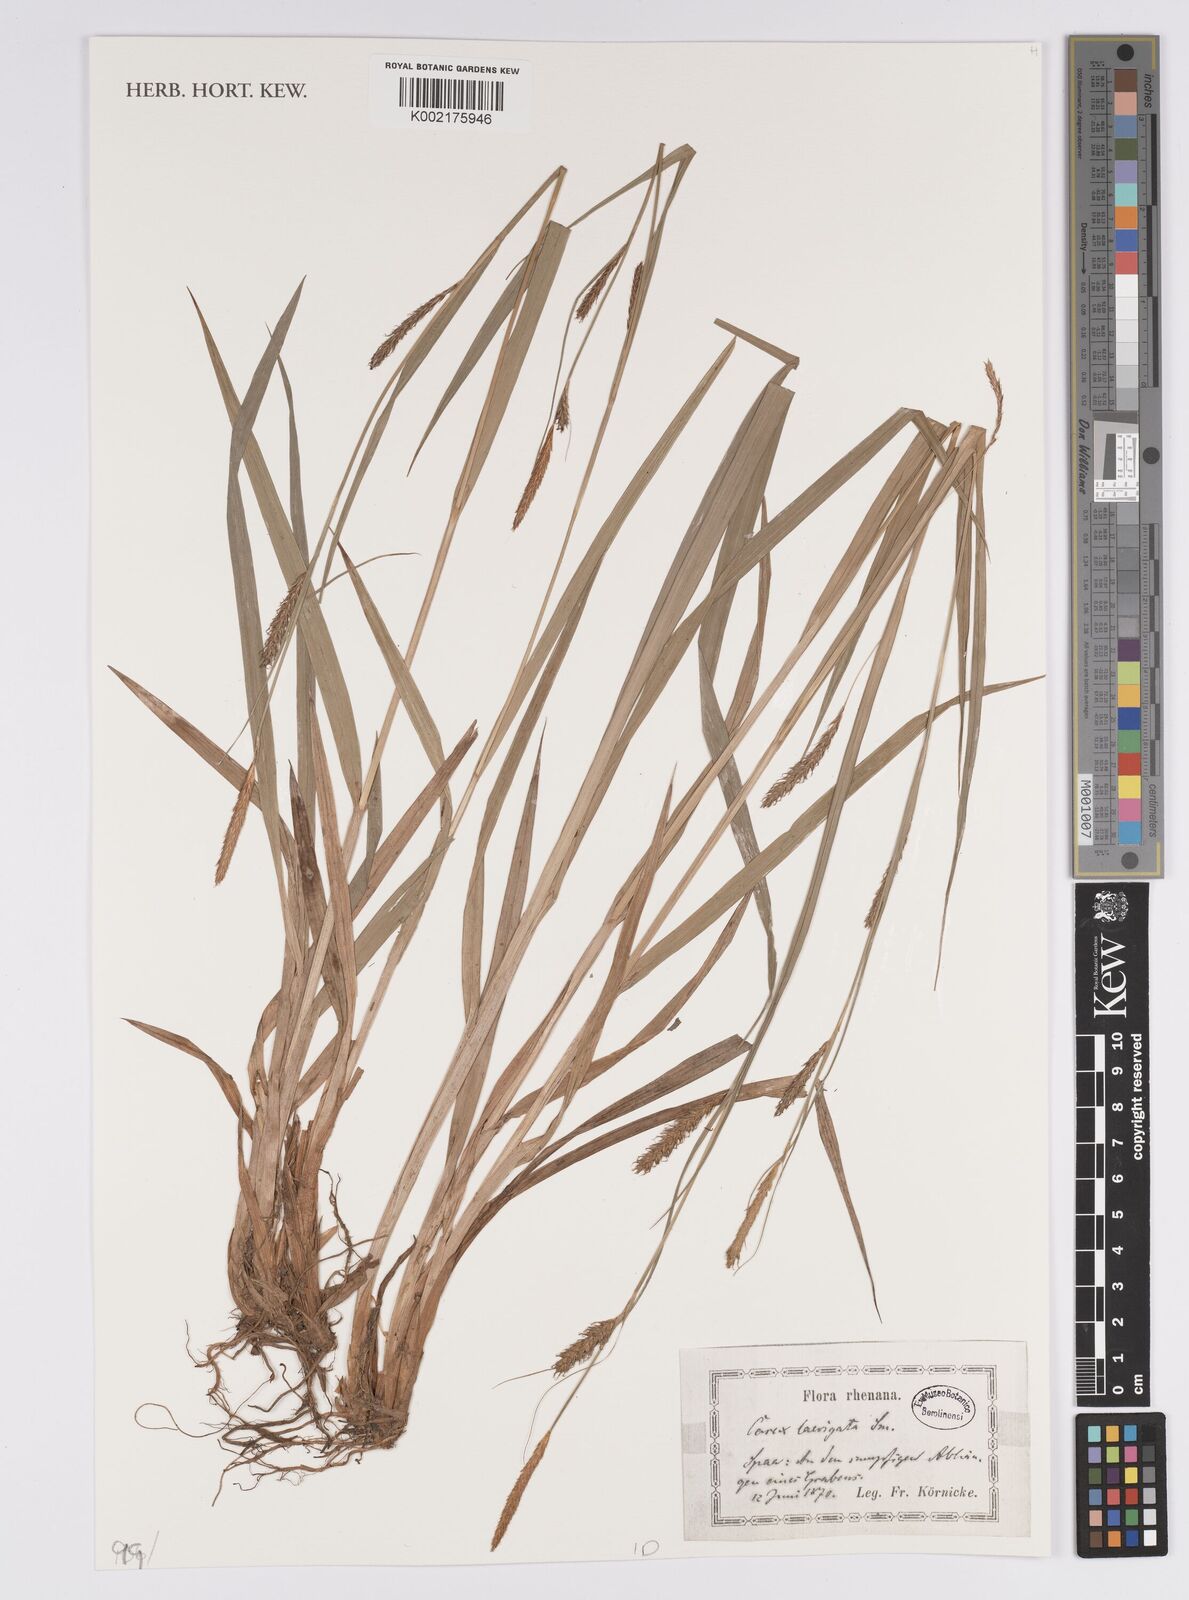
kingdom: Plantae
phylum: Tracheophyta
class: Liliopsida
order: Poales
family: Cyperaceae
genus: Carex
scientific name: Carex laevigata
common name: Smooth-stalked sedge
